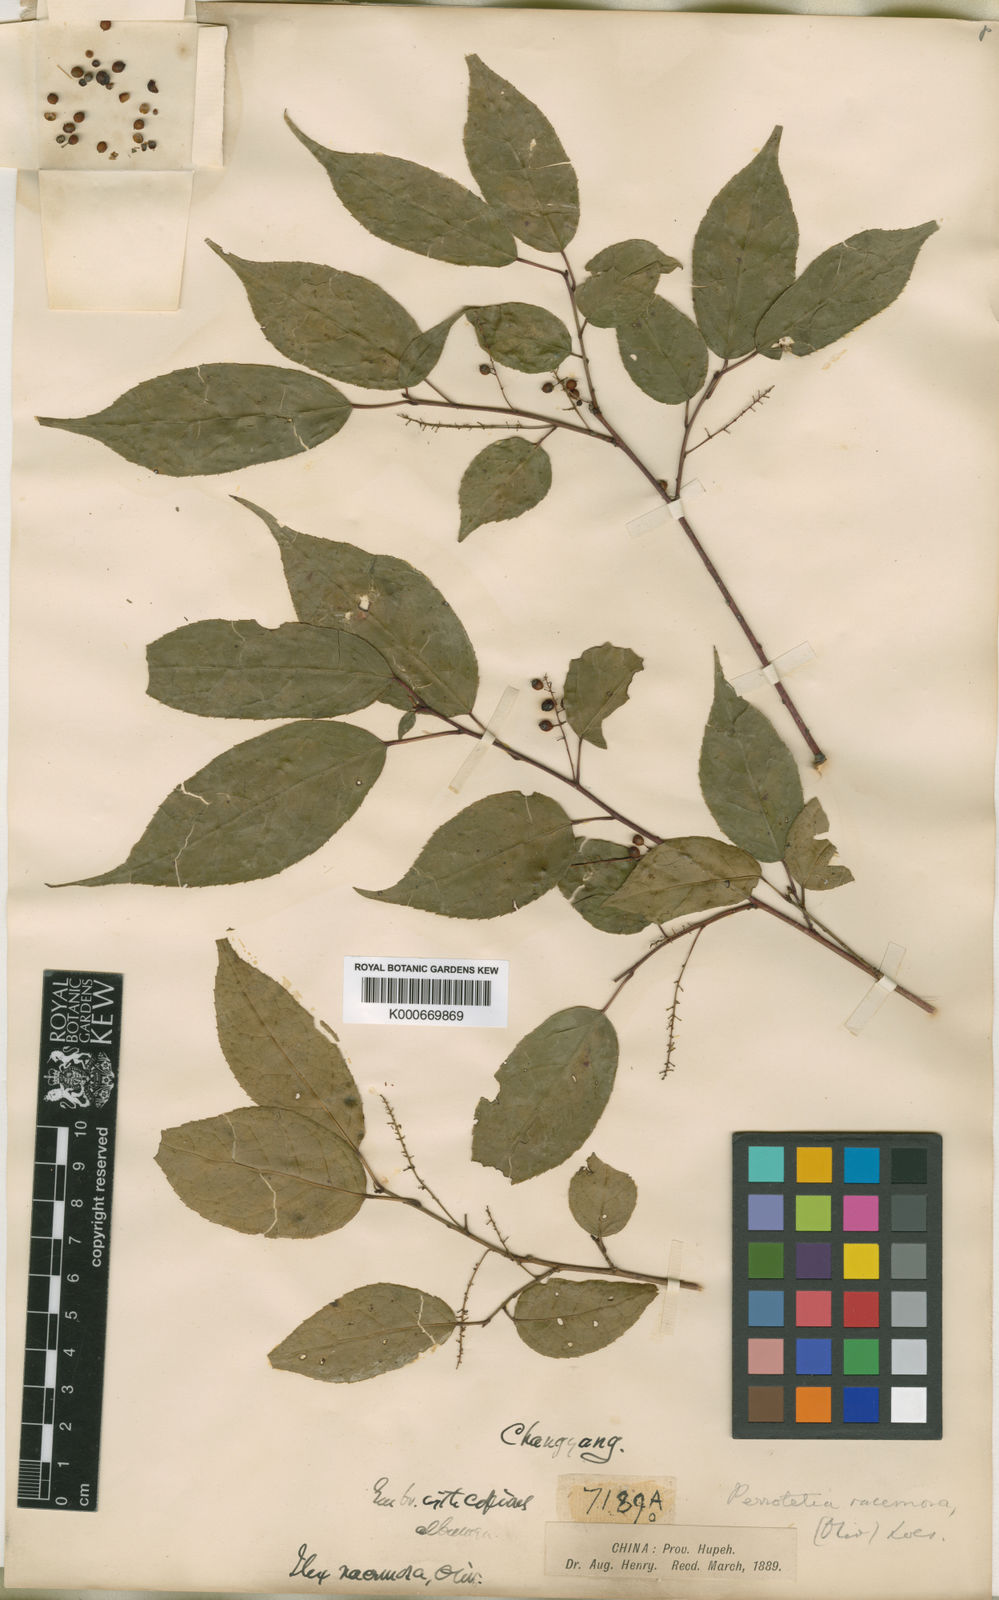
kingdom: Plantae
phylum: Tracheophyta
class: Magnoliopsida
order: Huerteales
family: Dipentodontaceae
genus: Perrottetia
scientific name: Perrottetia racemosa
